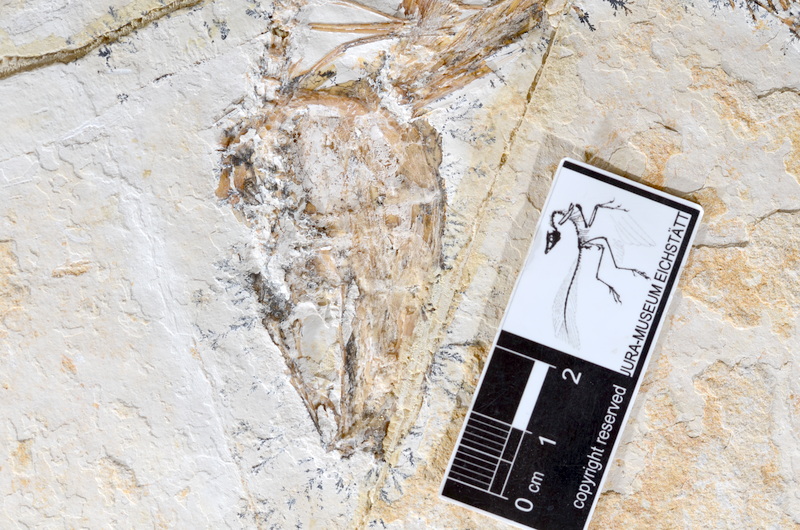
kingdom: Animalia
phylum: Chordata
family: Allothrissopidae
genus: Allothrissops
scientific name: Allothrissops
